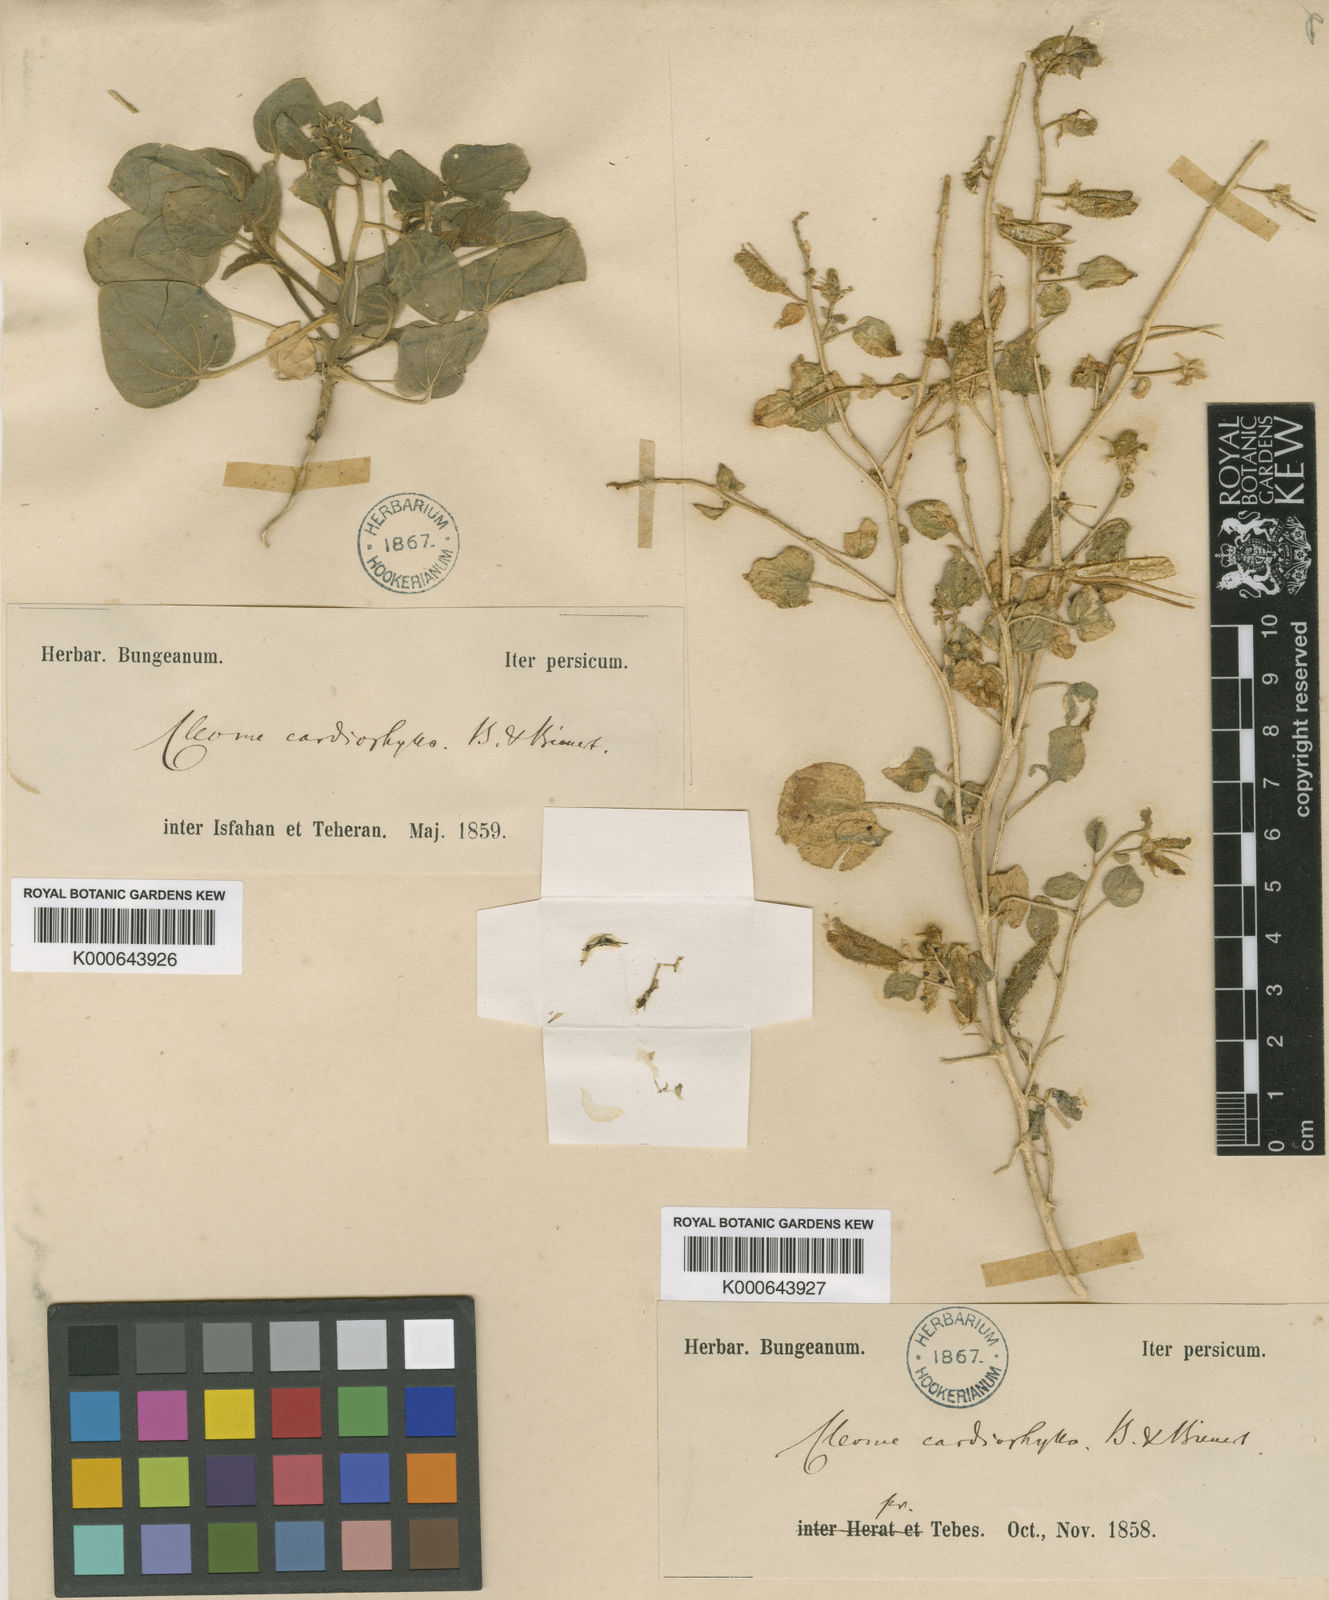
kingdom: Plantae
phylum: Tracheophyta
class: Magnoliopsida
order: Brassicales
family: Cleomaceae
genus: Rorida
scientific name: Rorida quinquenervia
